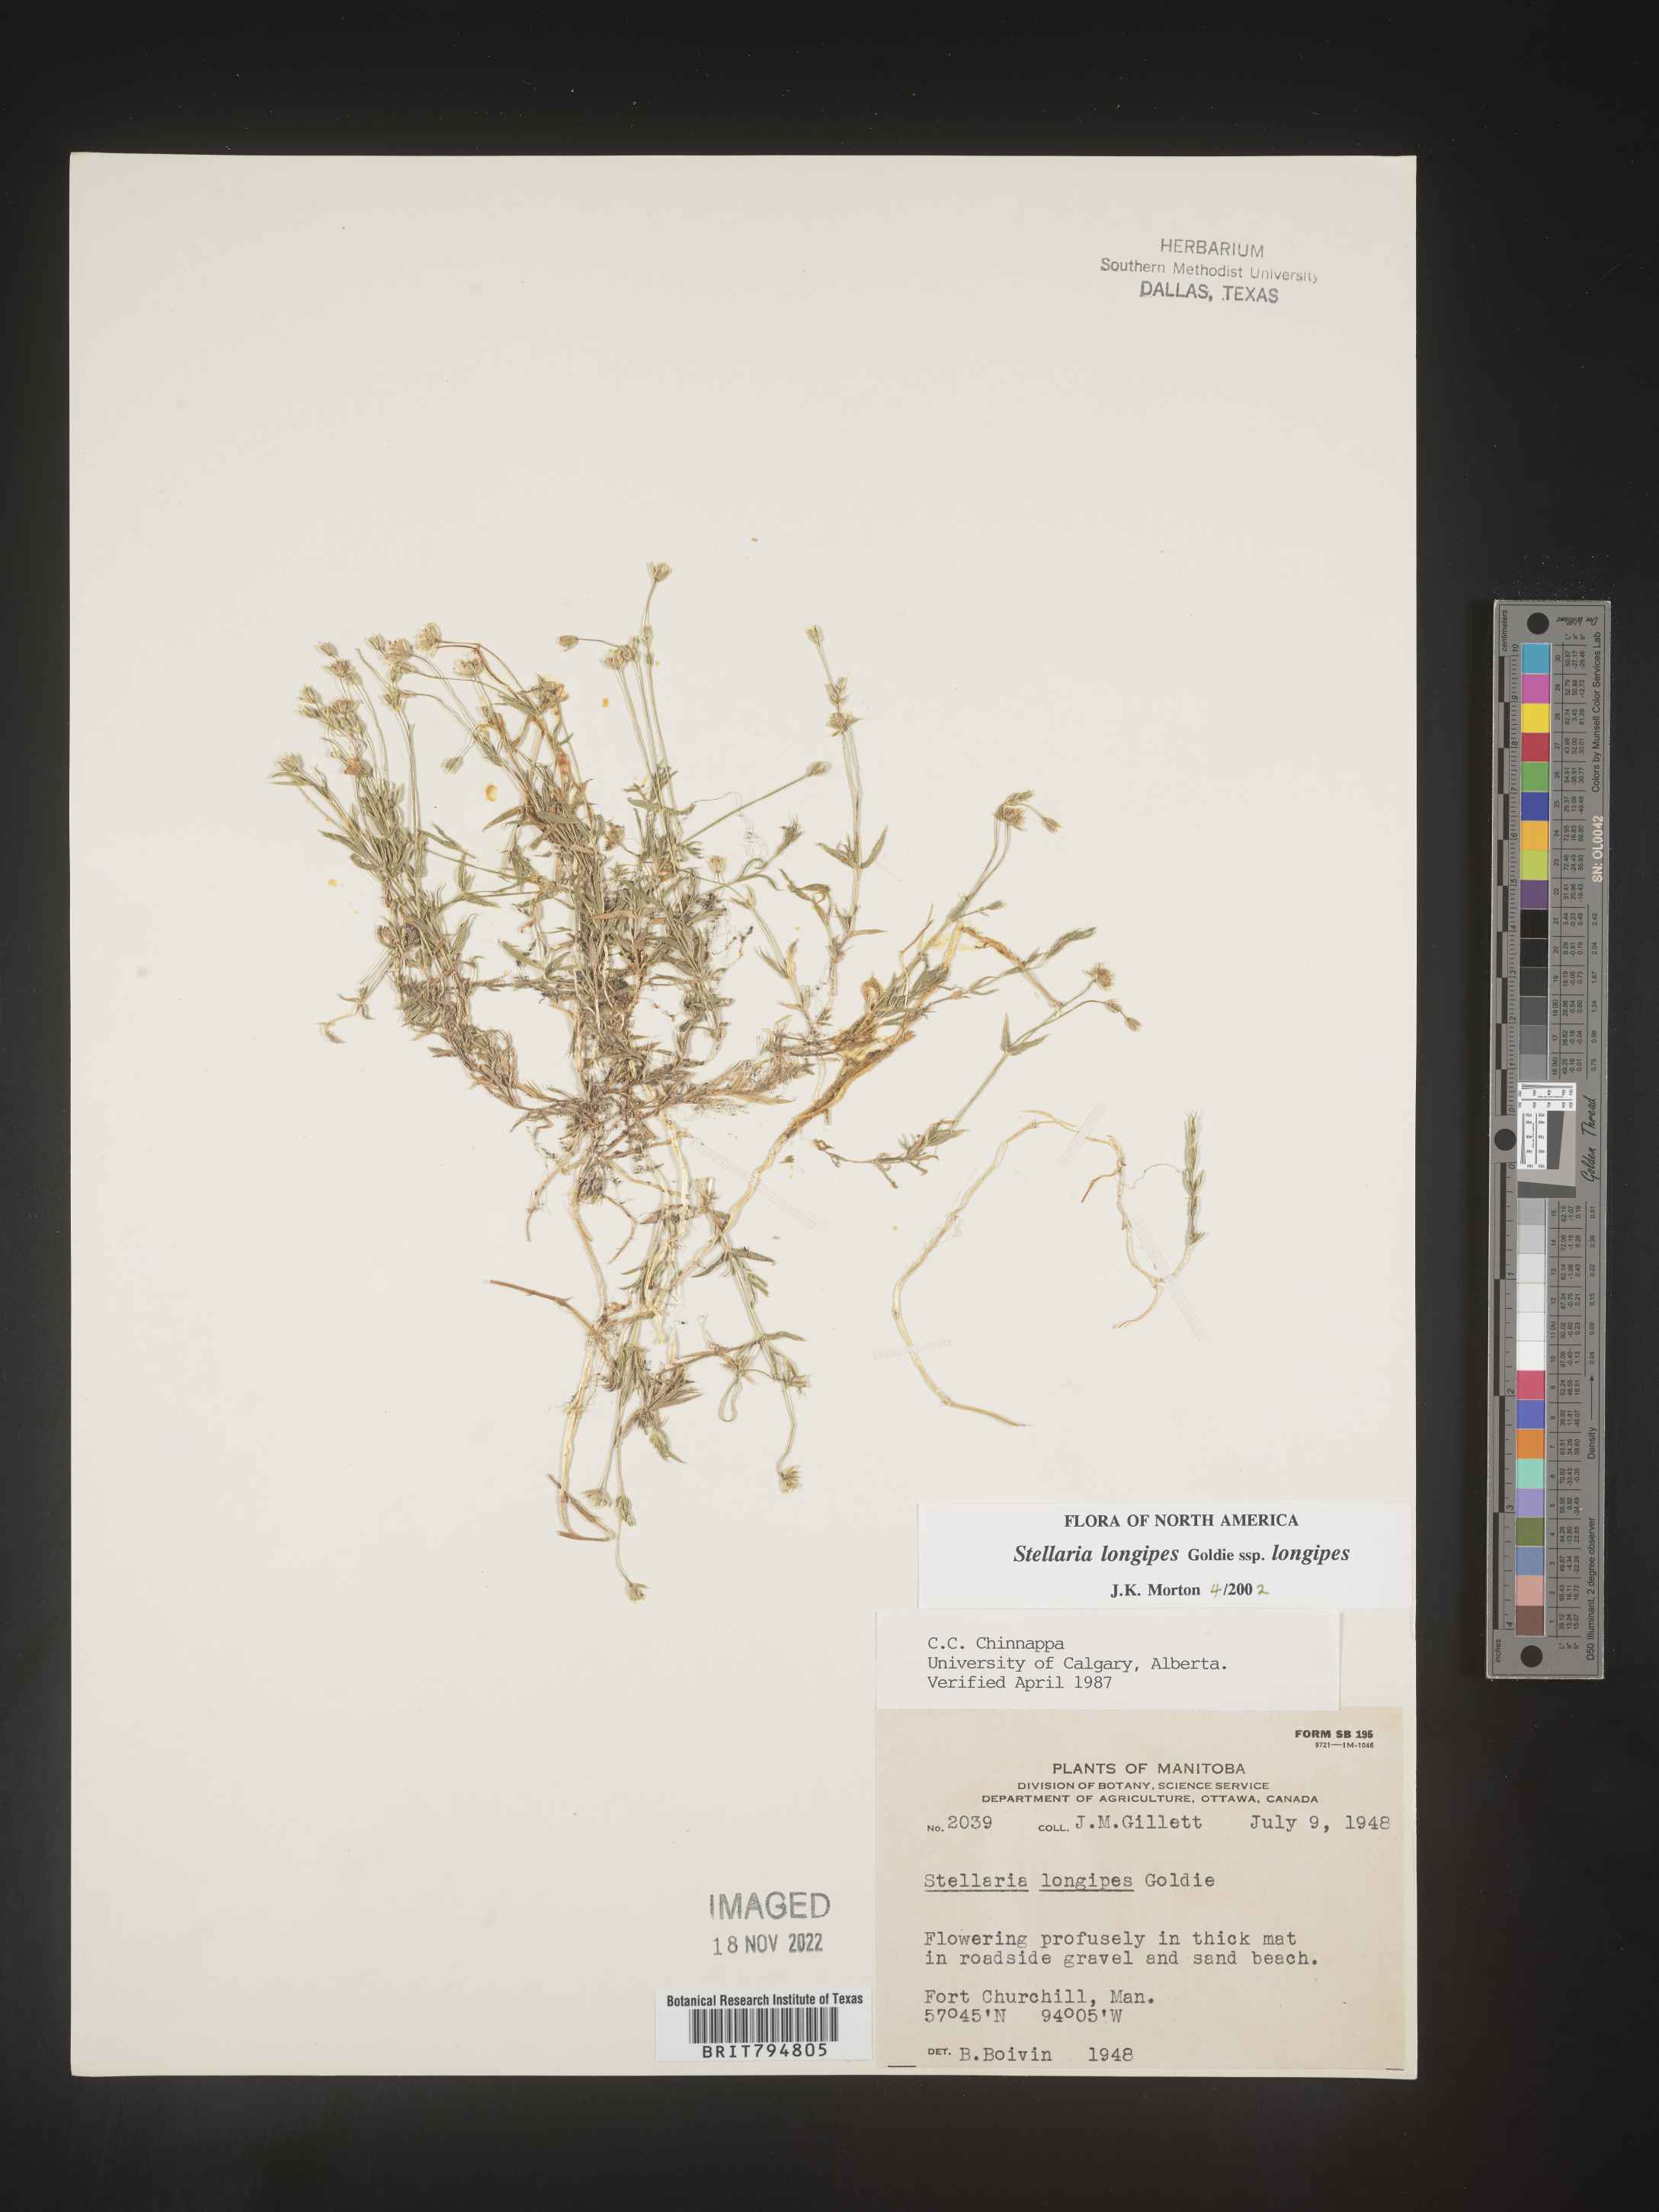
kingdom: Plantae
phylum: Tracheophyta
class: Magnoliopsida
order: Caryophyllales
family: Caryophyllaceae
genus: Stellaria
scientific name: Stellaria longipes
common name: Goldie's starwort
